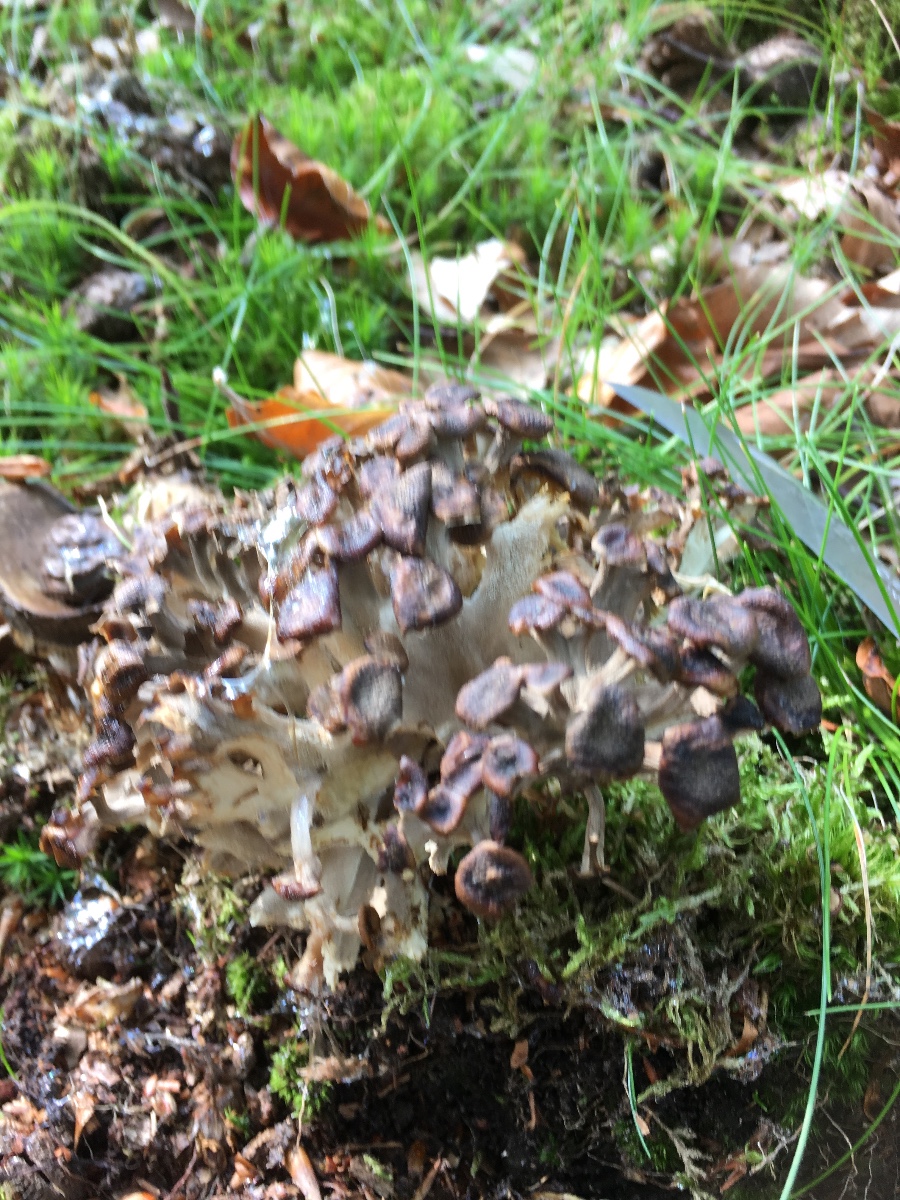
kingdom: Fungi
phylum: Basidiomycota
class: Agaricomycetes
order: Polyporales
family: Polyporaceae
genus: Polyporus
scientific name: Polyporus umbellatus
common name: skærmformet stilkporesvamp
